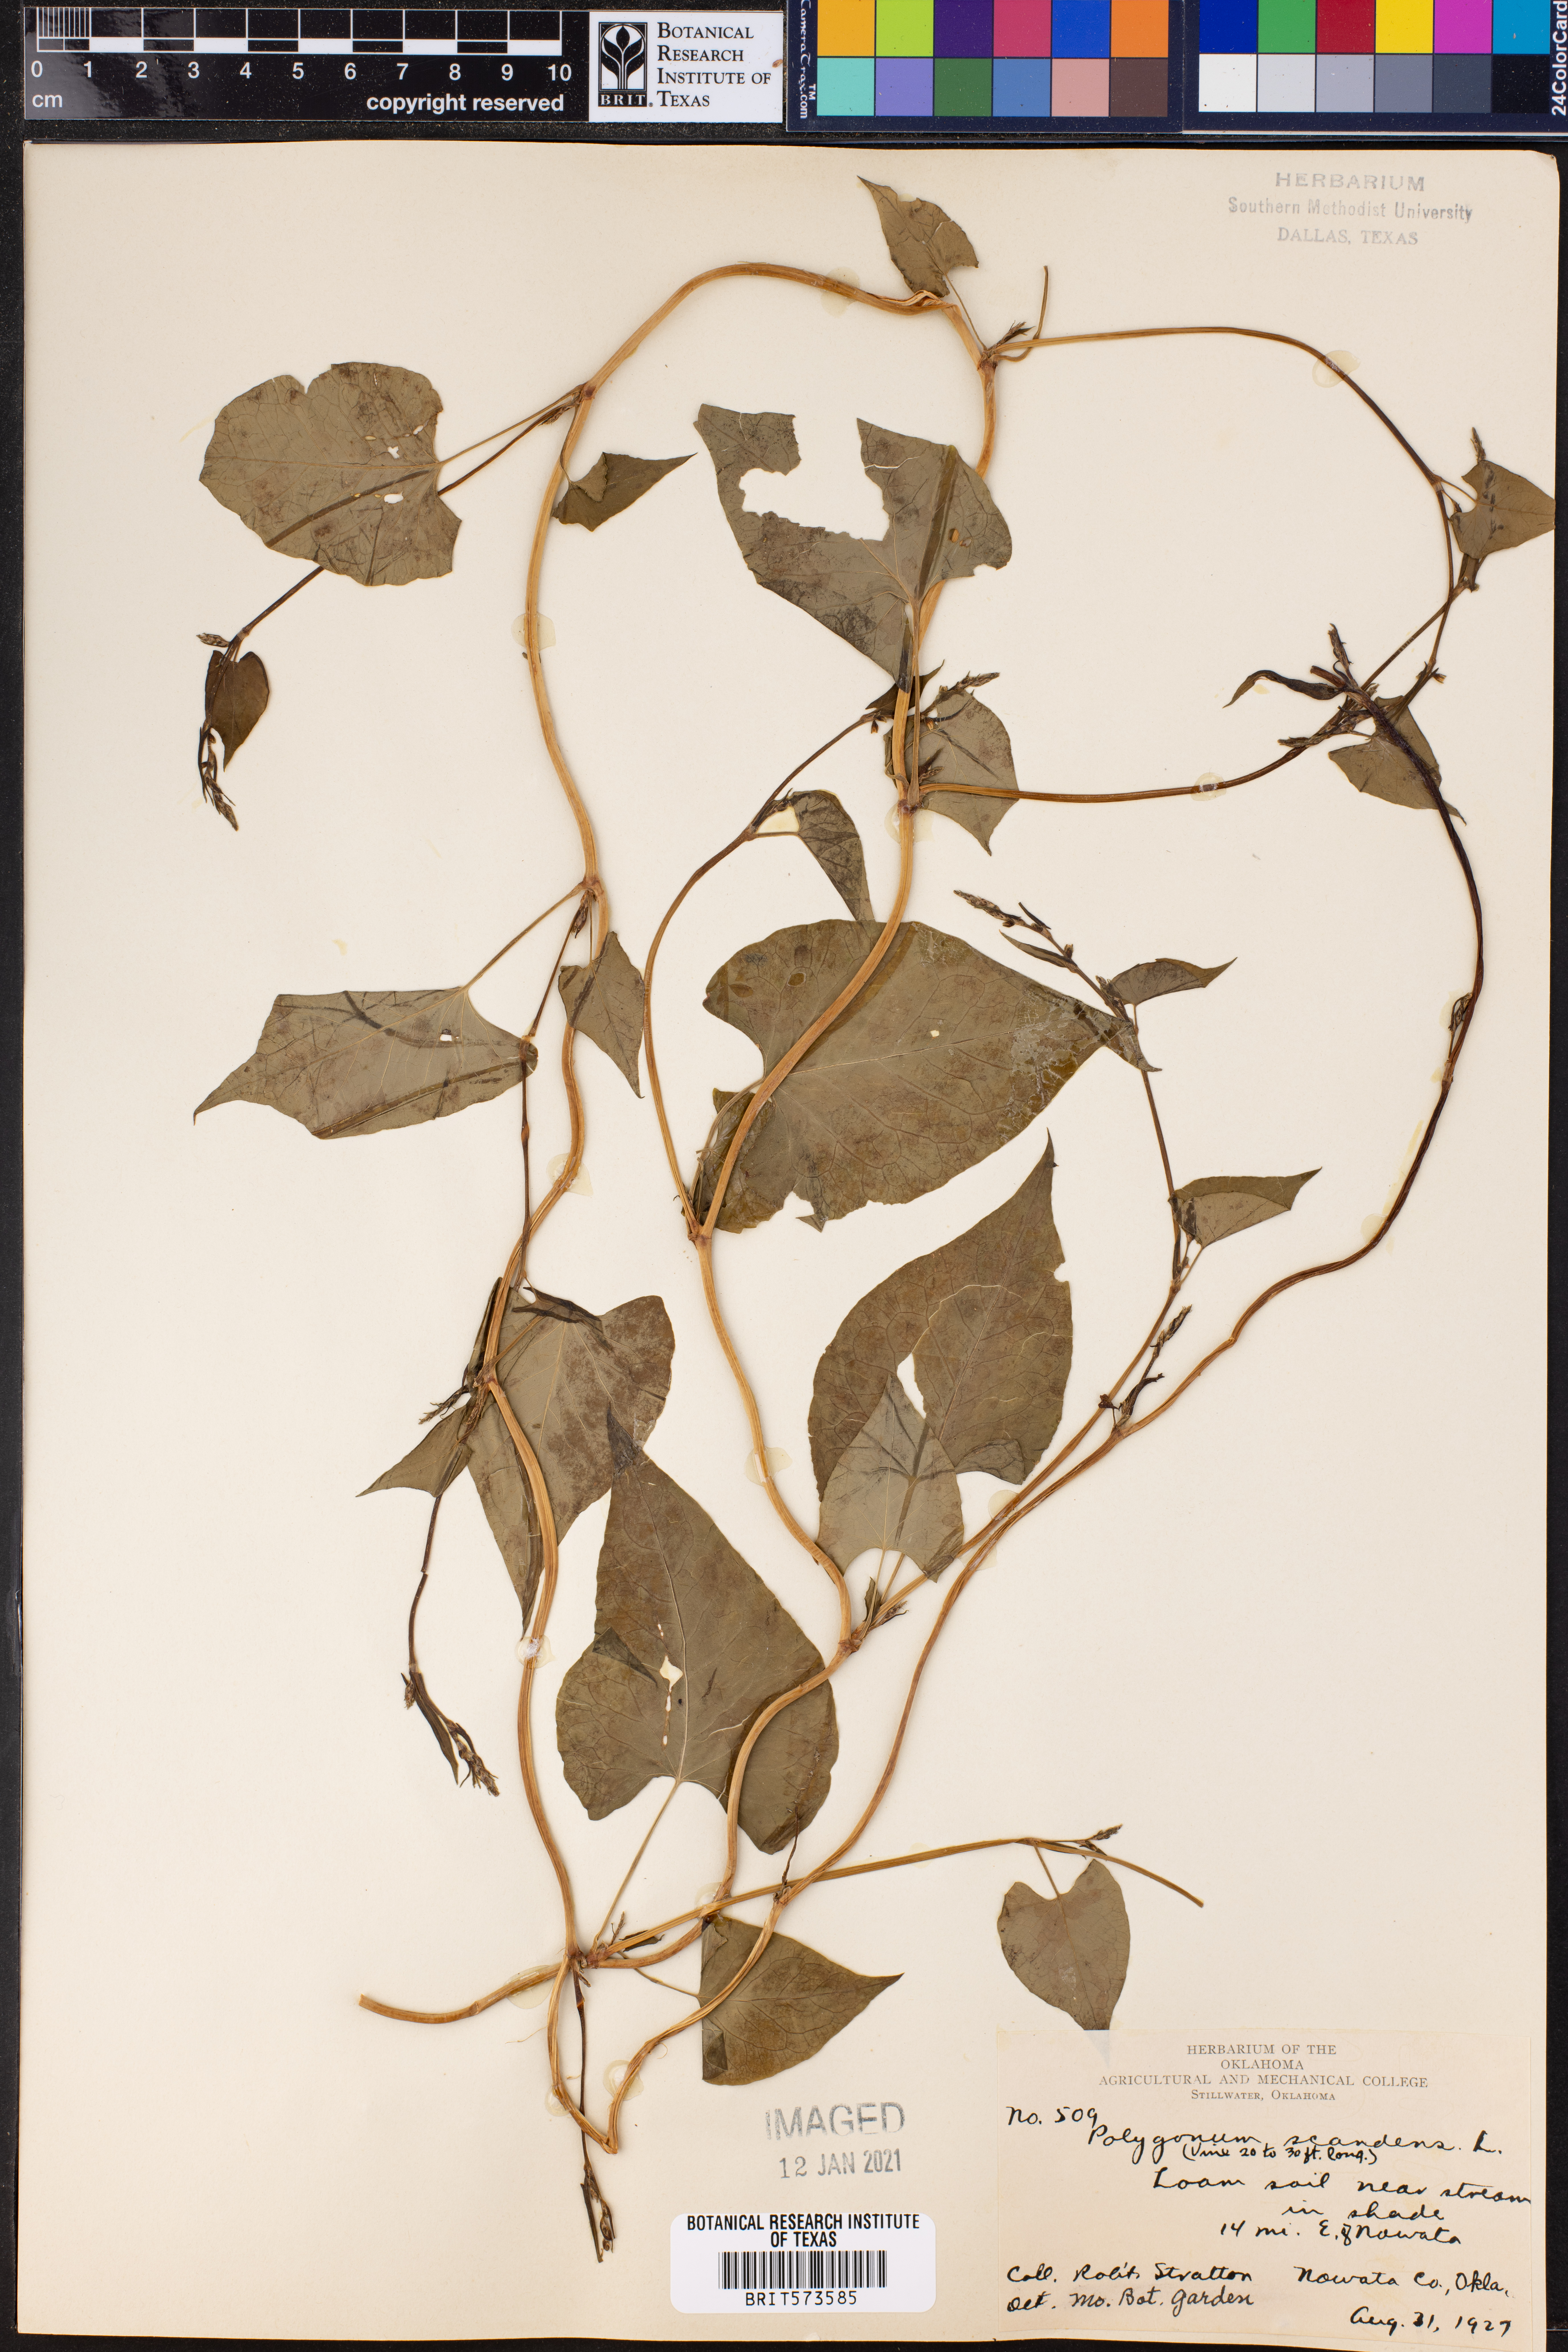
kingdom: Plantae
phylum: Tracheophyta
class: Magnoliopsida
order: Caryophyllales
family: Polygonaceae
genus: Fallopia
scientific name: Fallopia scandens
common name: Climbing false buckwheat
